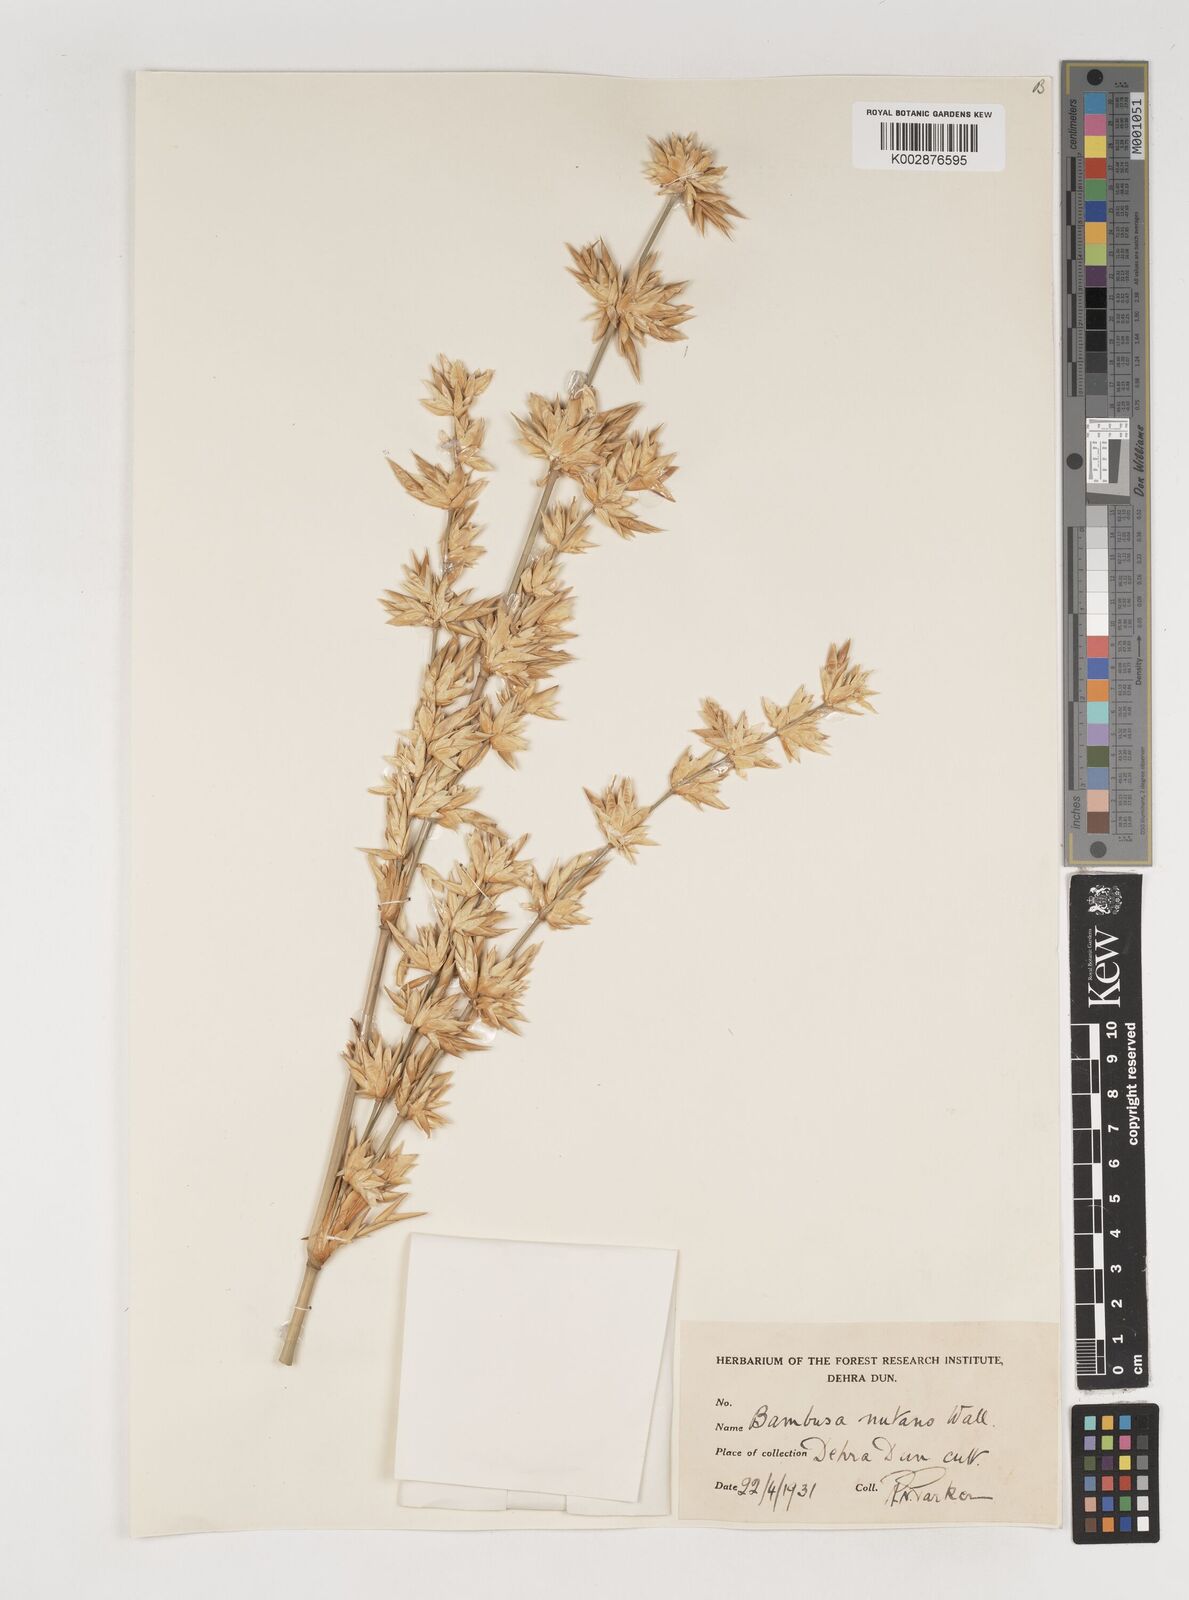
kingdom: Plantae
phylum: Tracheophyta
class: Liliopsida
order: Poales
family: Poaceae
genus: Bambusa
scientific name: Bambusa nutans
